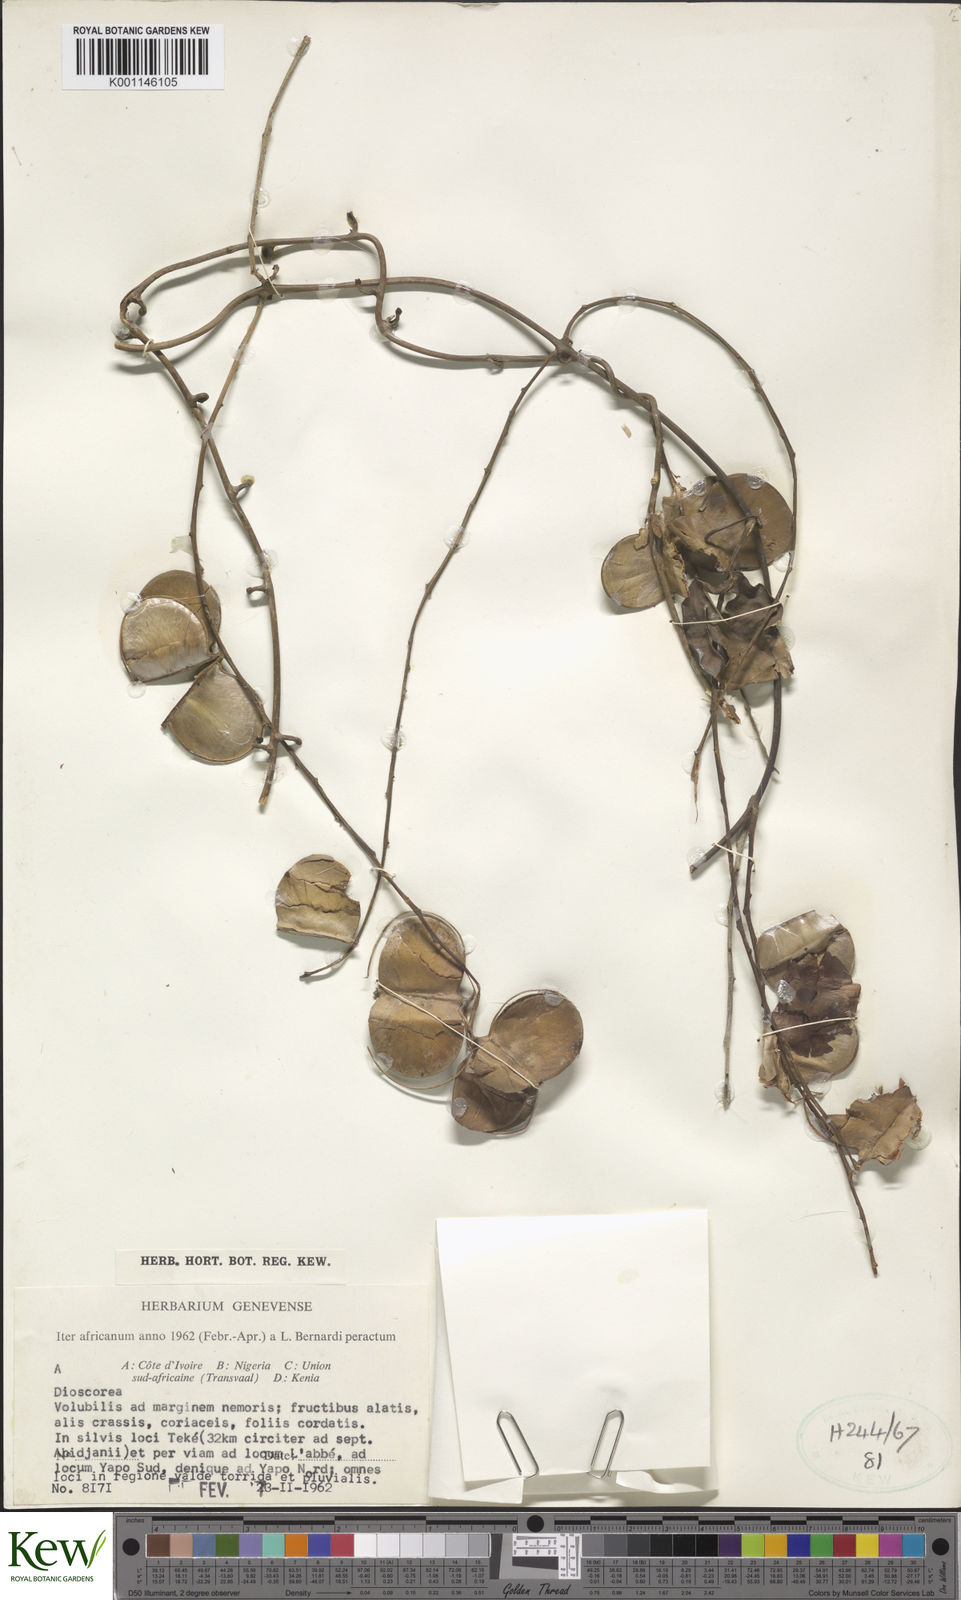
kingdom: Plantae
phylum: Tracheophyta
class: Liliopsida
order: Dioscoreales
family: Dioscoreaceae
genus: Dioscorea
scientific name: Dioscorea
